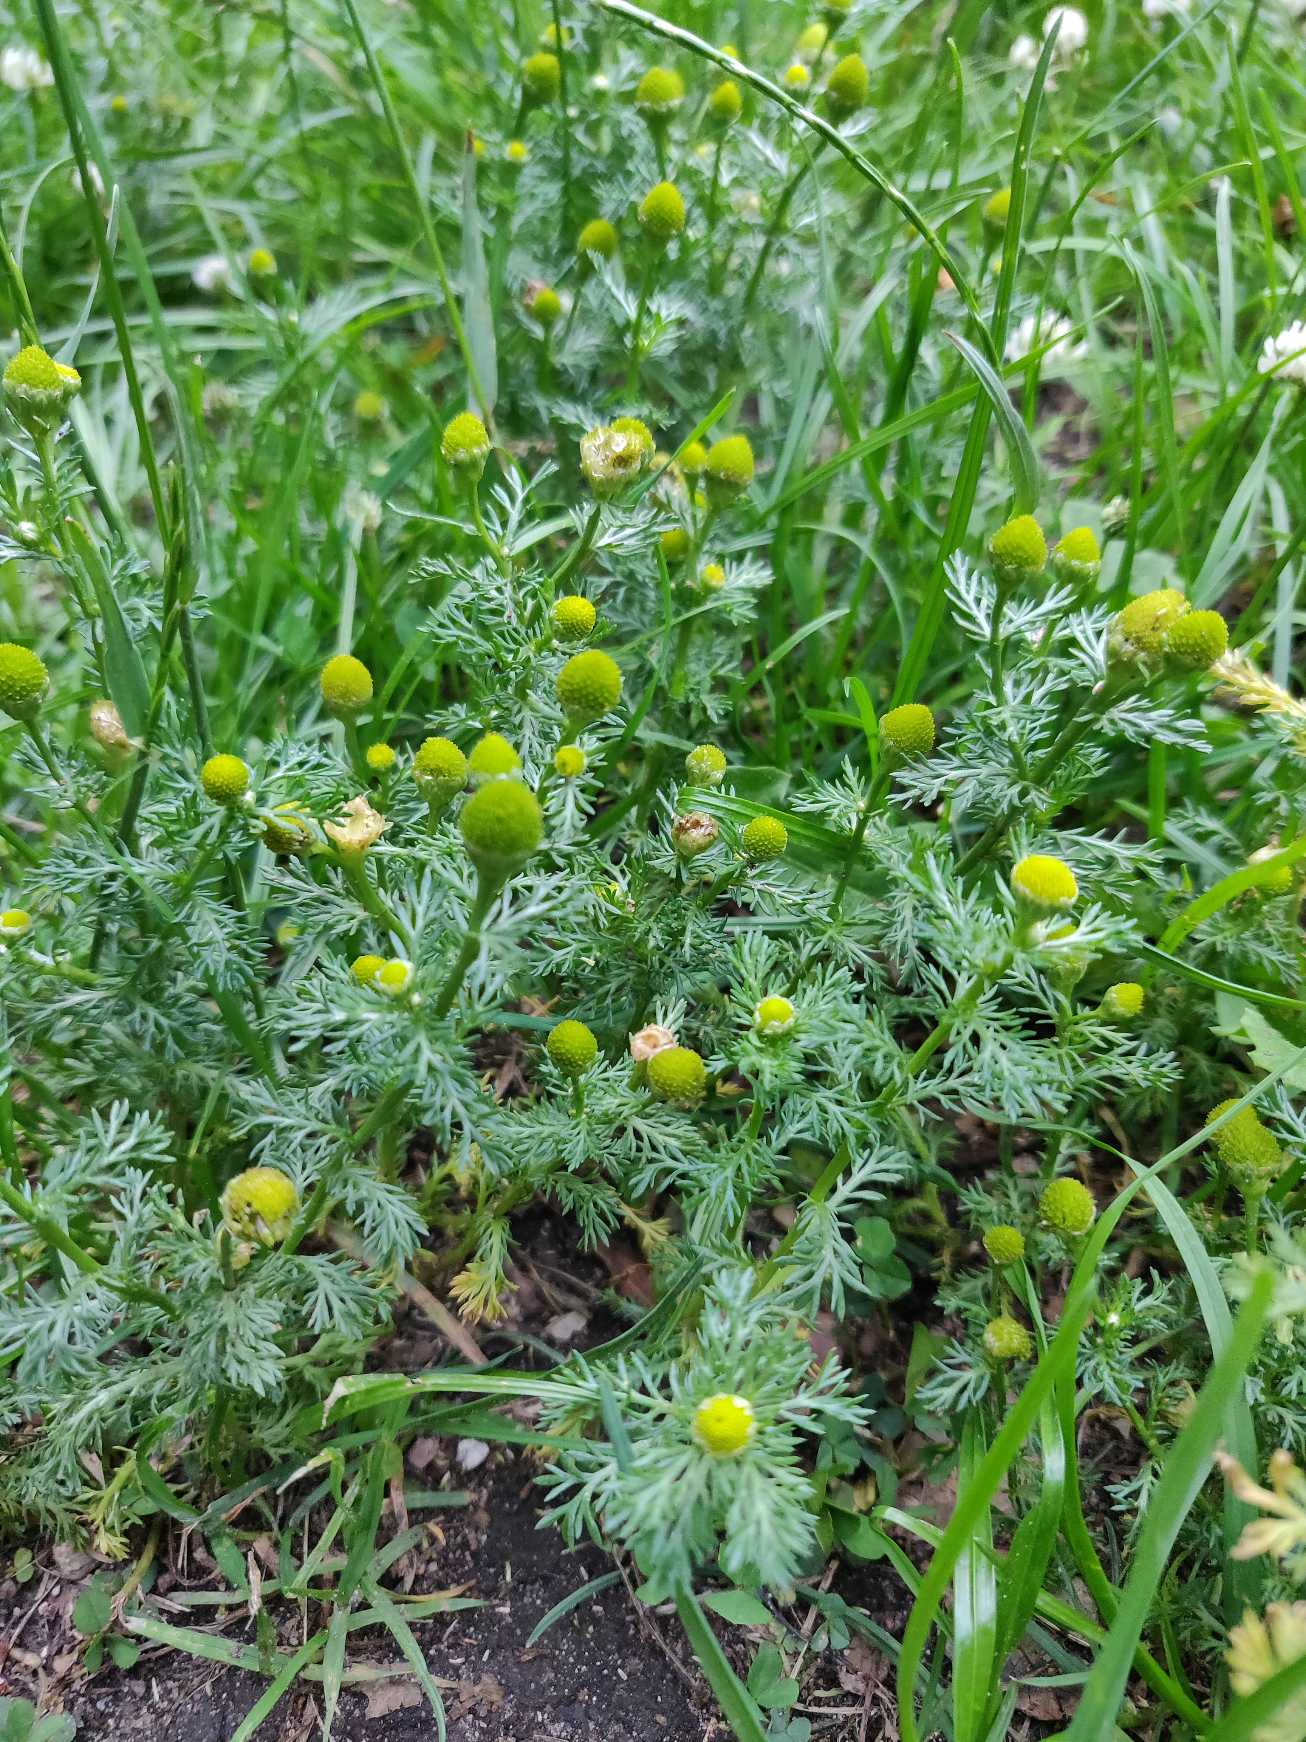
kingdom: Plantae
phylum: Tracheophyta
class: Magnoliopsida
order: Asterales
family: Asteraceae
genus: Matricaria
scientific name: Matricaria discoidea
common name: Skive-kamille
